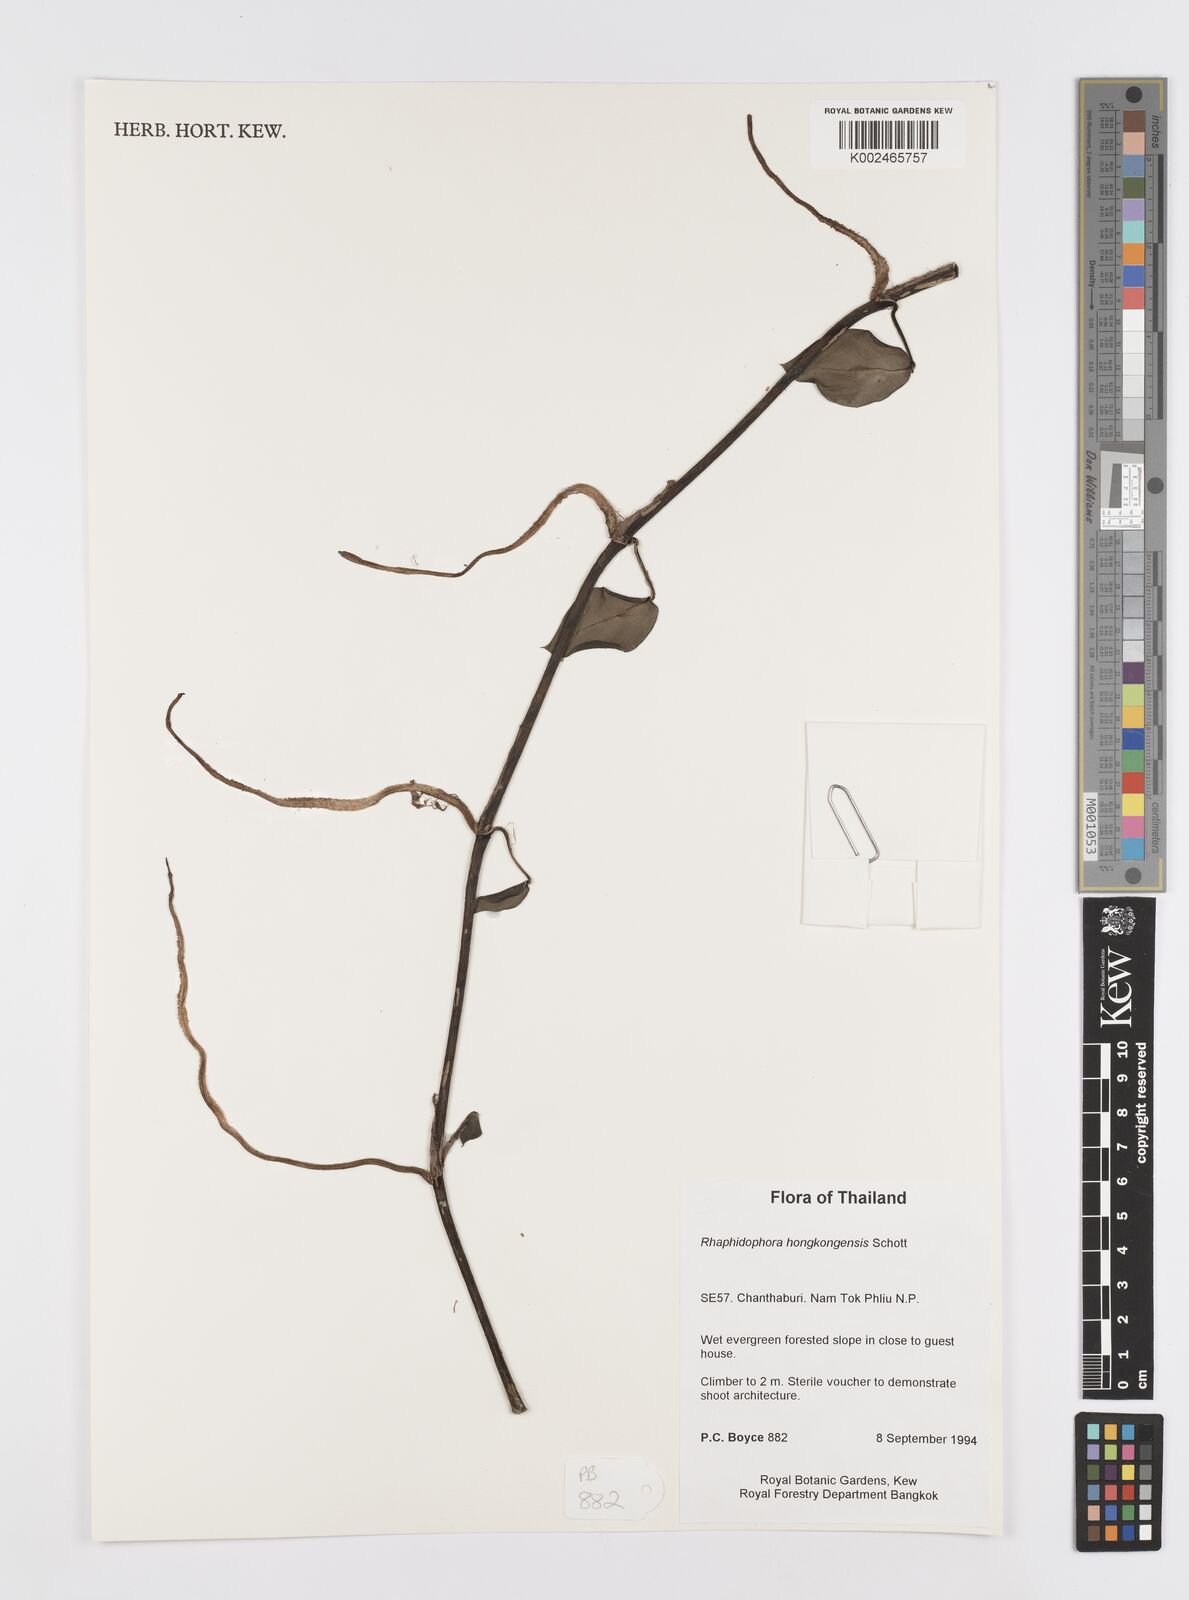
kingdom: Plantae
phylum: Tracheophyta
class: Liliopsida
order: Alismatales
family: Araceae
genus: Rhaphidophora
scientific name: Rhaphidophora
